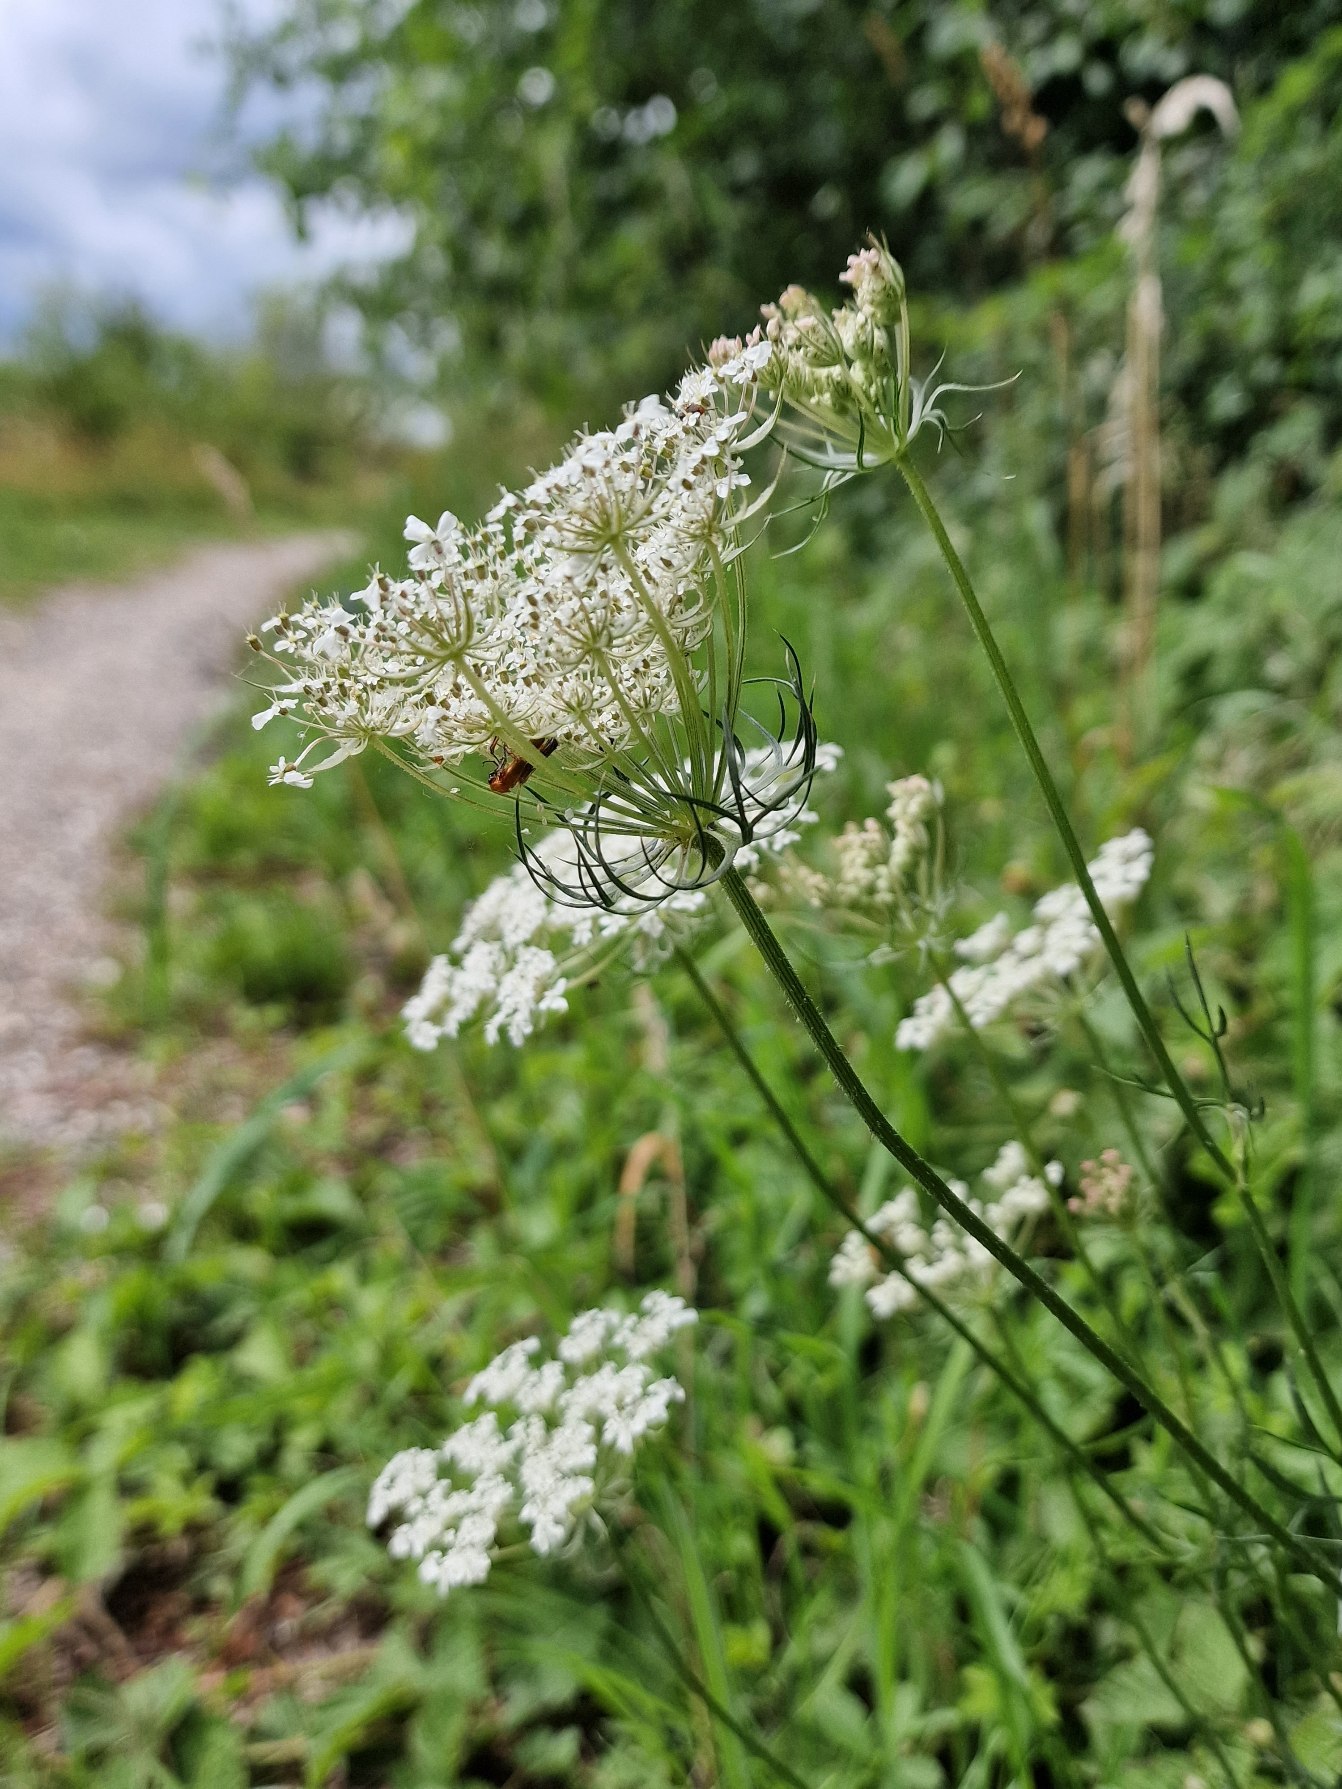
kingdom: Plantae
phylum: Tracheophyta
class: Magnoliopsida
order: Apiales
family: Apiaceae
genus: Daucus
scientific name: Daucus carota
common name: Gulerod
